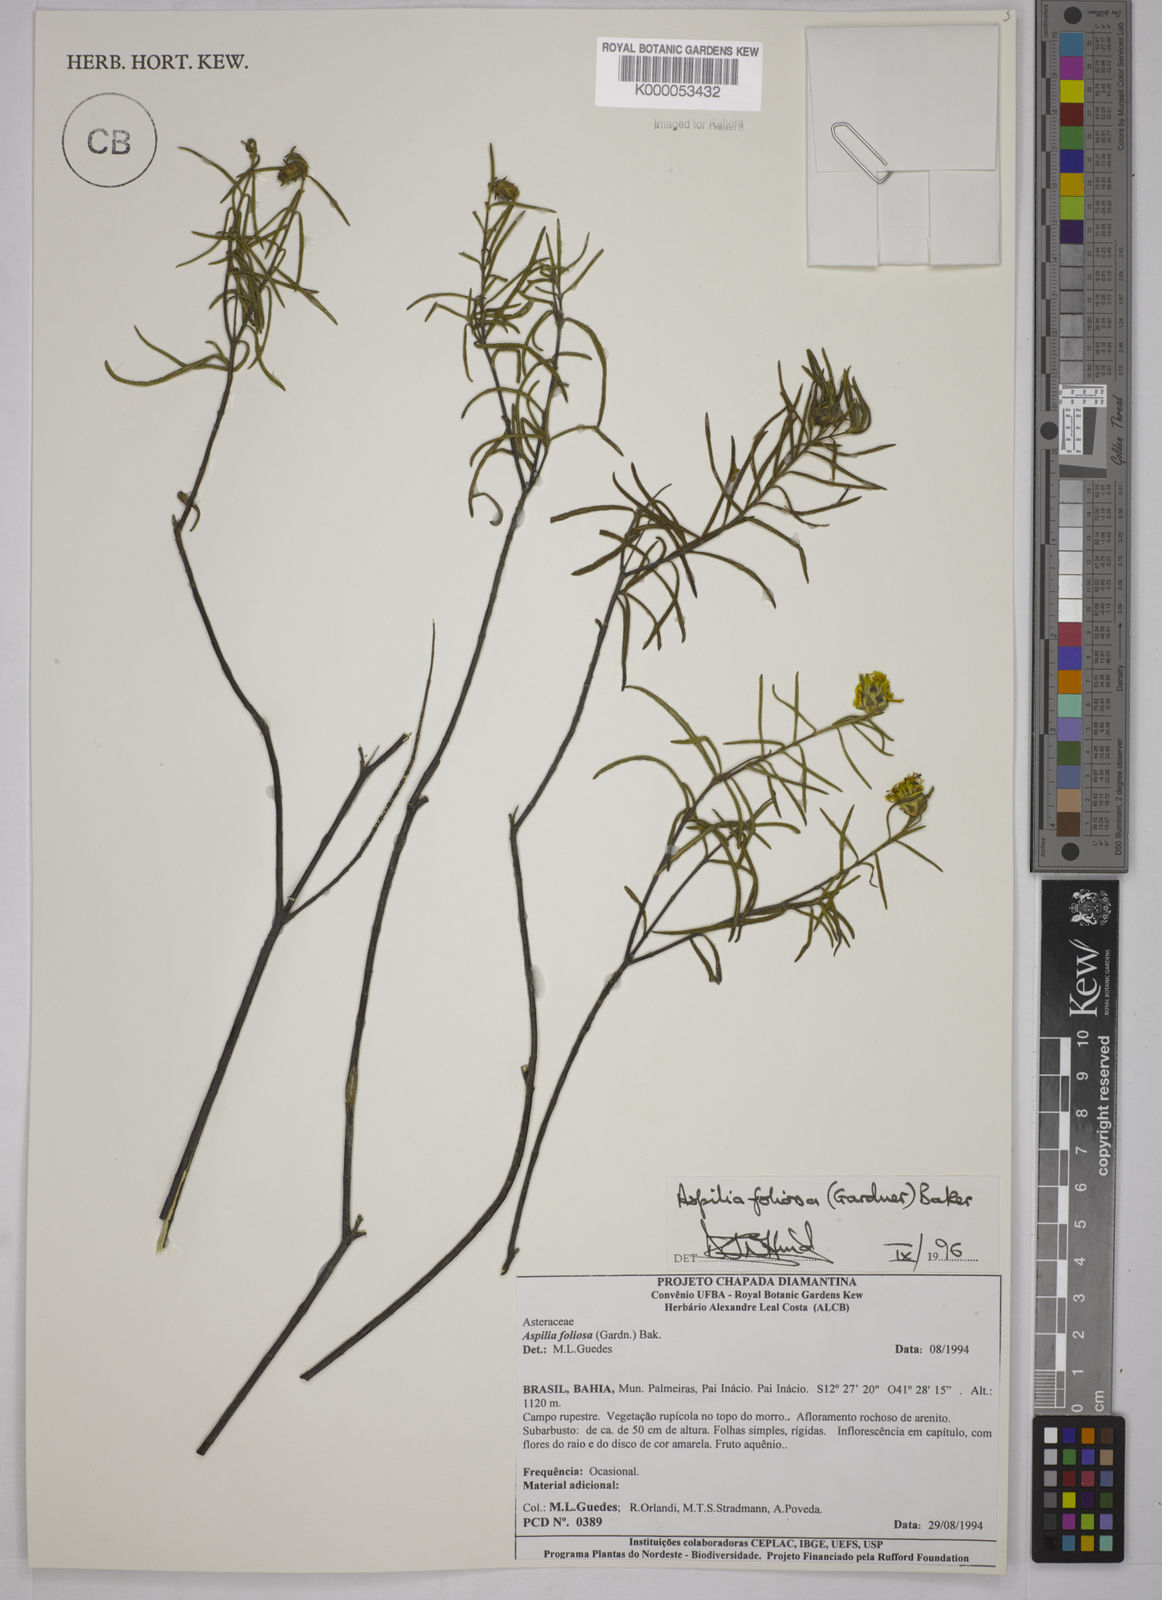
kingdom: Plantae
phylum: Tracheophyta
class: Magnoliopsida
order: Asterales
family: Asteraceae
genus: Aspilia
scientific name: Aspilia
